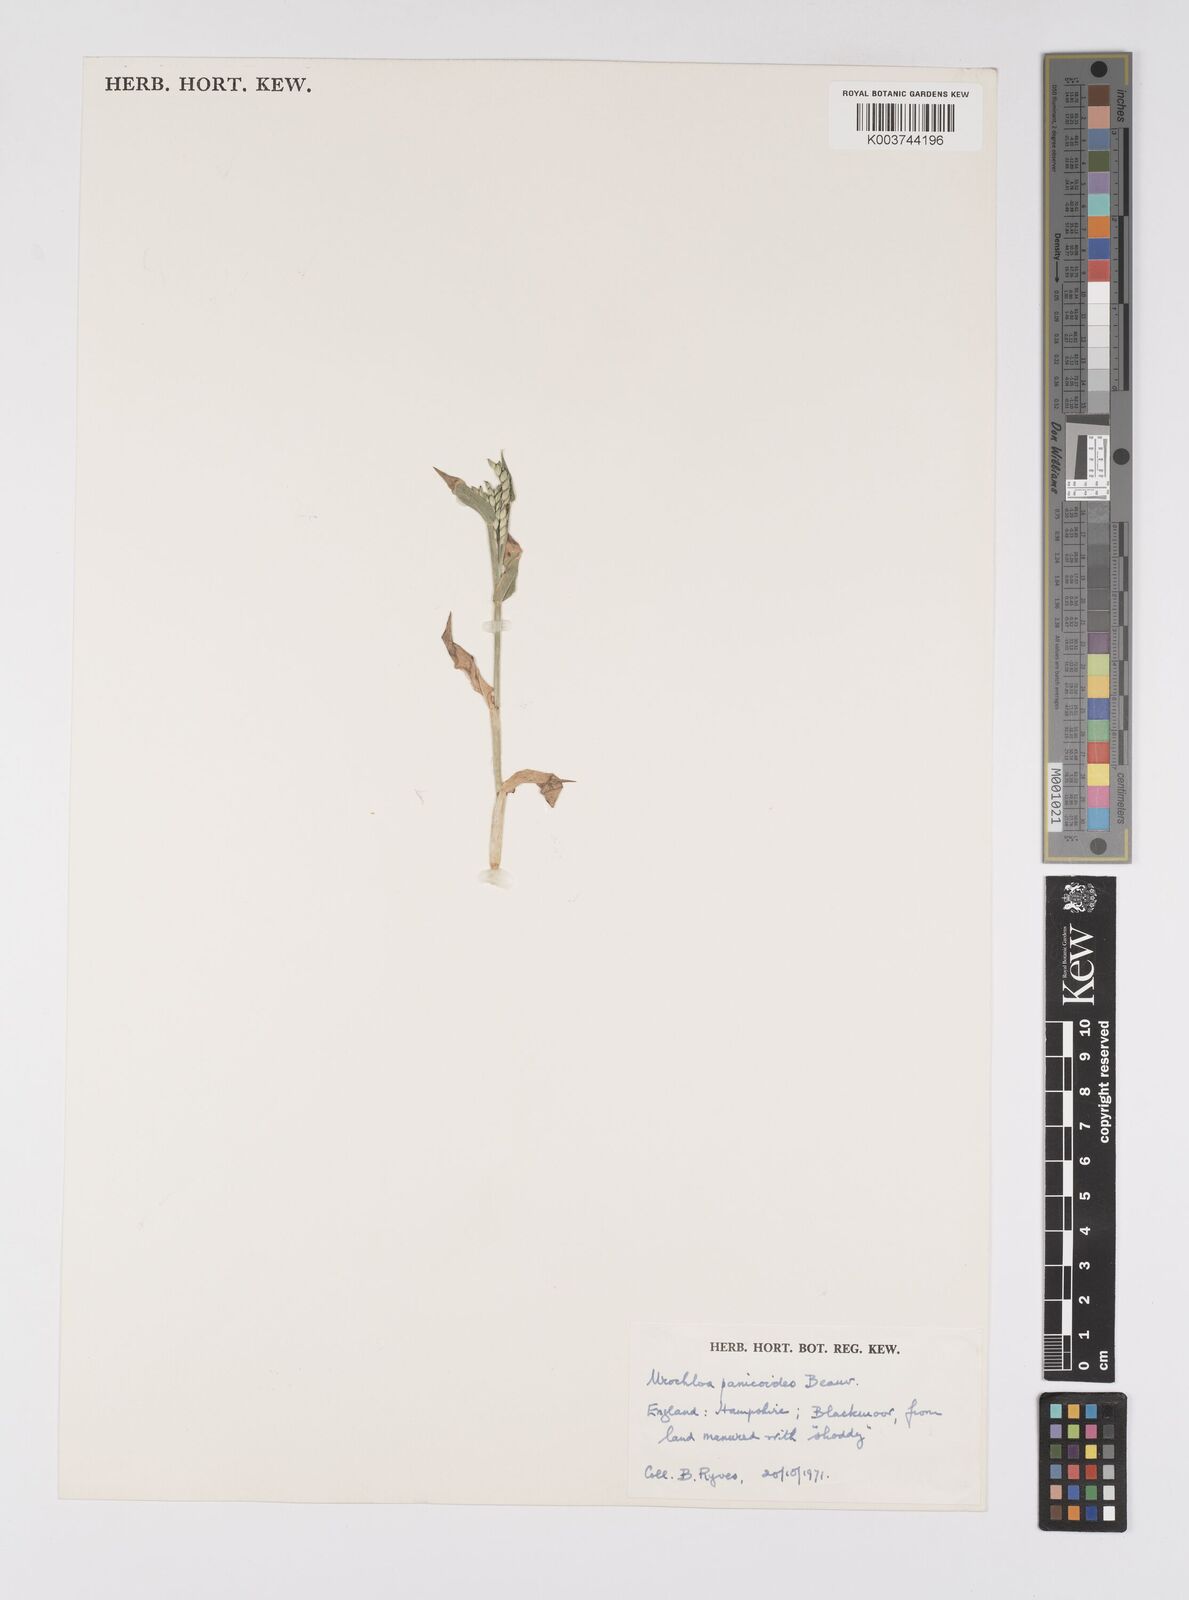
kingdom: Plantae
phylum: Tracheophyta
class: Liliopsida
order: Poales
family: Poaceae
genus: Urochloa
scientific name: Urochloa panicoides
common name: Sharp-flowered signal-grass
